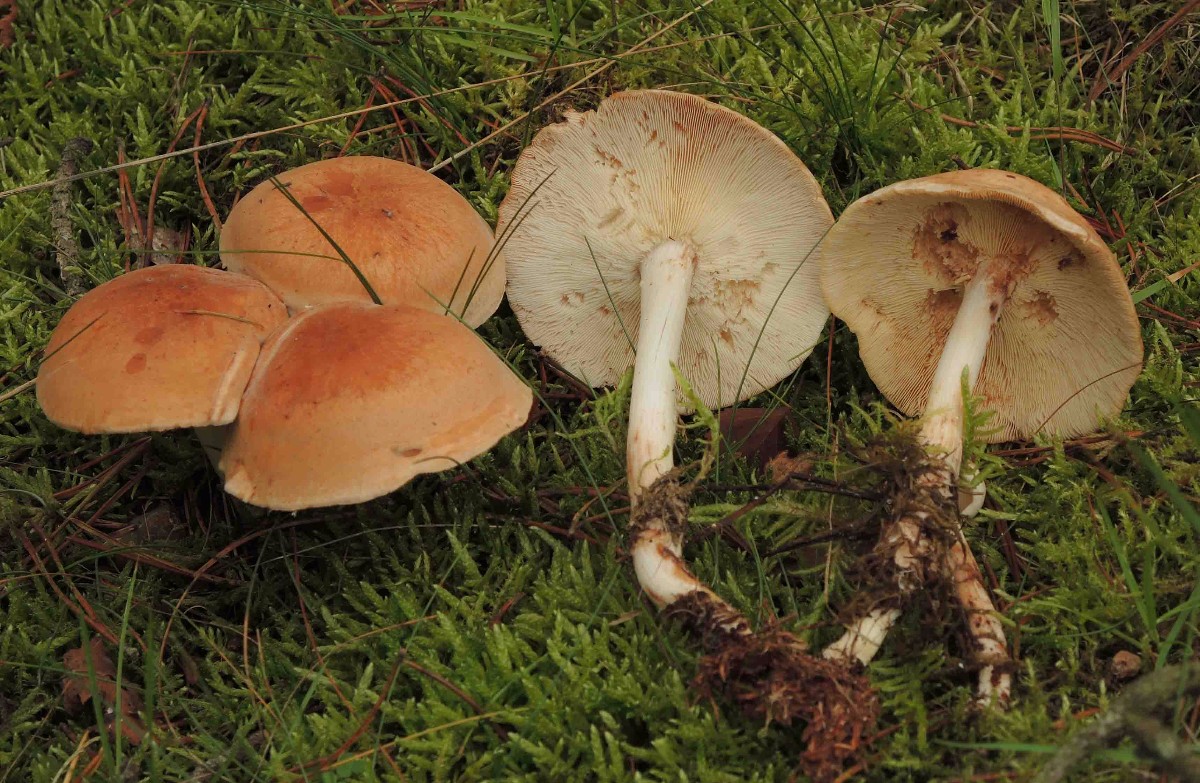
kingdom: Fungi
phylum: Basidiomycota
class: Agaricomycetes
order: Agaricales
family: Omphalotaceae
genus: Rhodocollybia
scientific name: Rhodocollybia prolixa
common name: snoet fladhat
